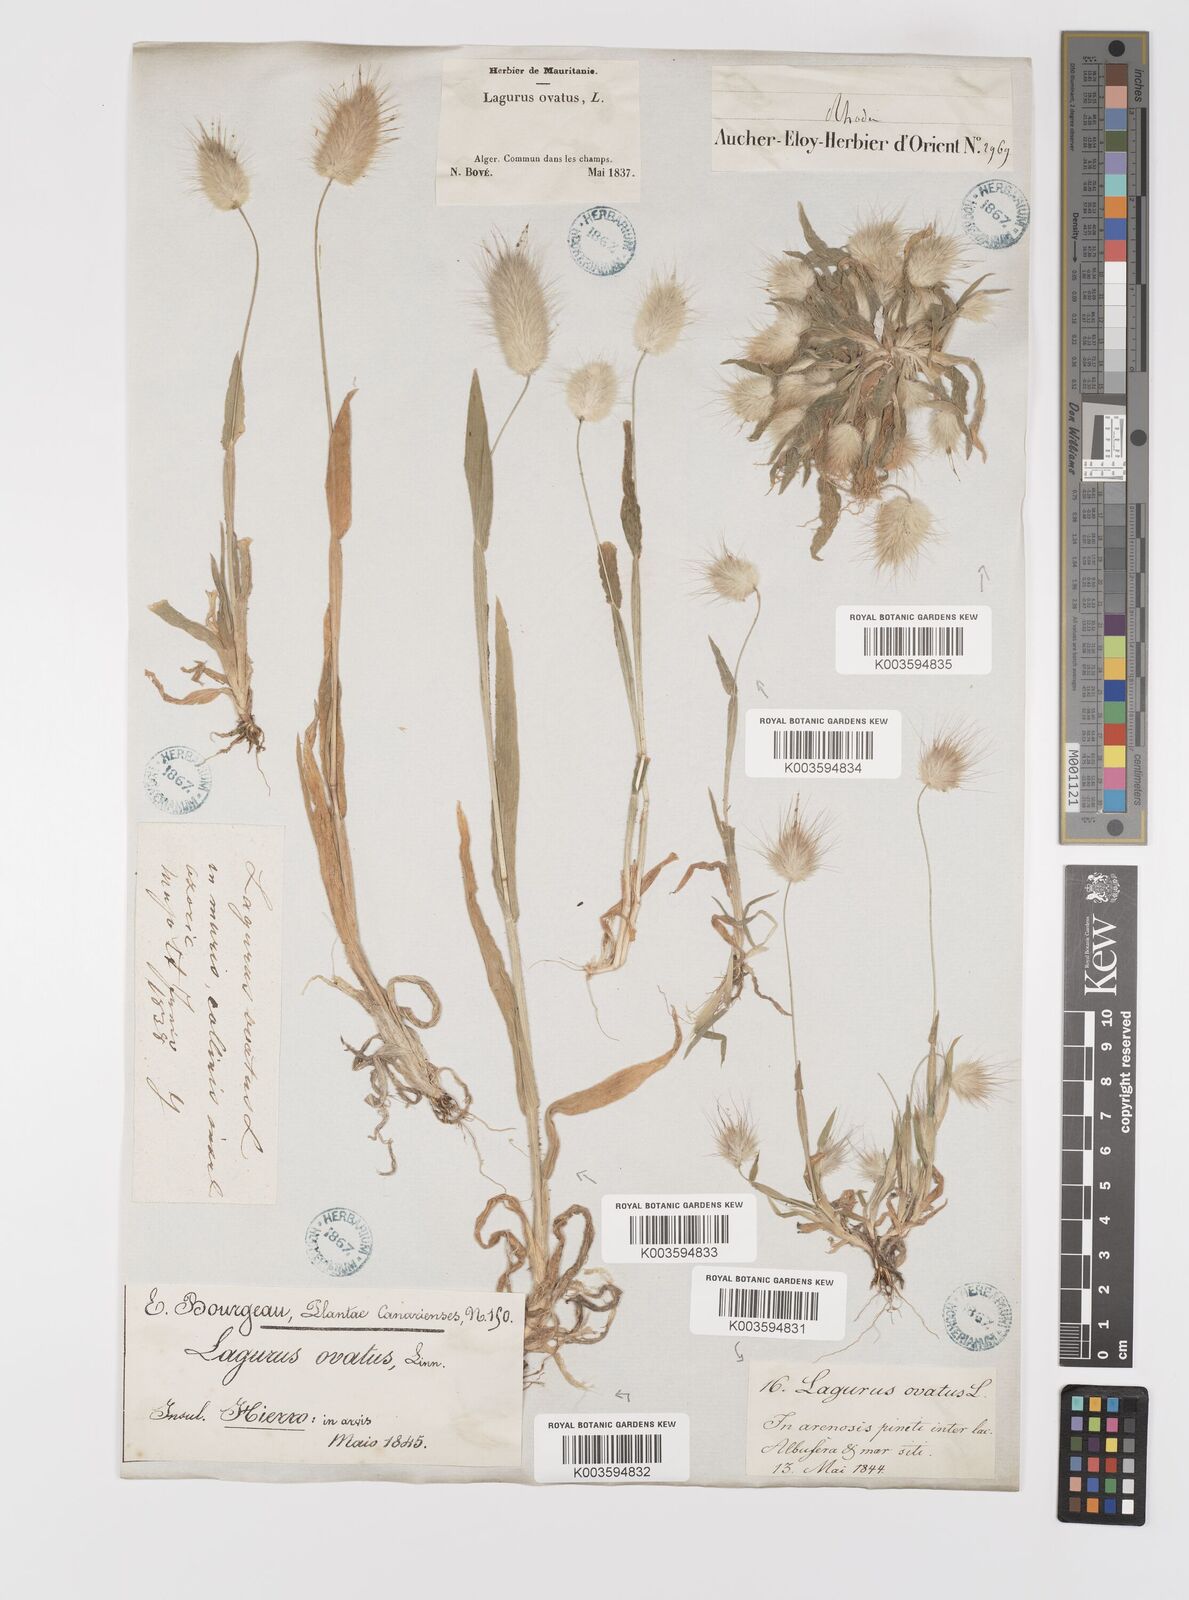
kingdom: Plantae
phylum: Tracheophyta
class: Liliopsida
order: Poales
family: Poaceae
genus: Lagurus
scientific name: Lagurus ovatus
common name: Hare's-tail
